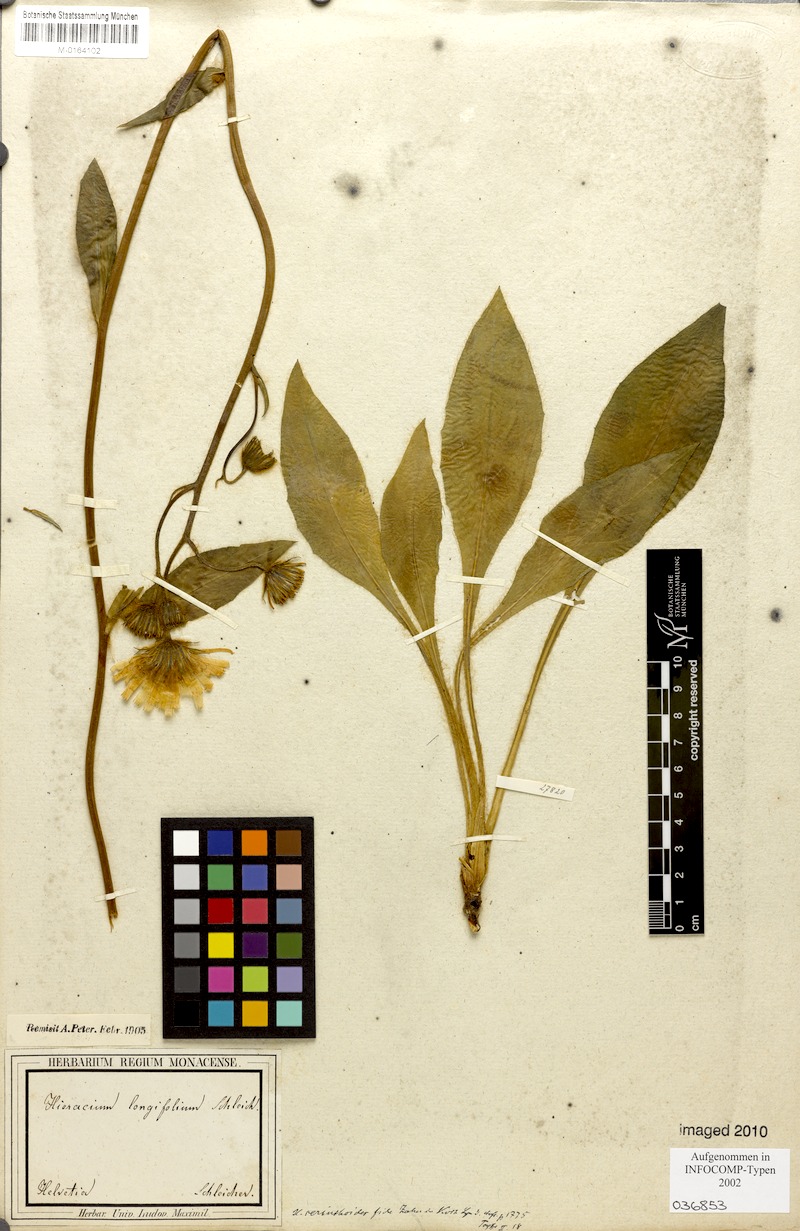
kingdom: Plantae
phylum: Tracheophyta
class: Magnoliopsida
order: Asterales
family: Asteraceae
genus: Hieracium
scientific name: Hieracium longifolium
